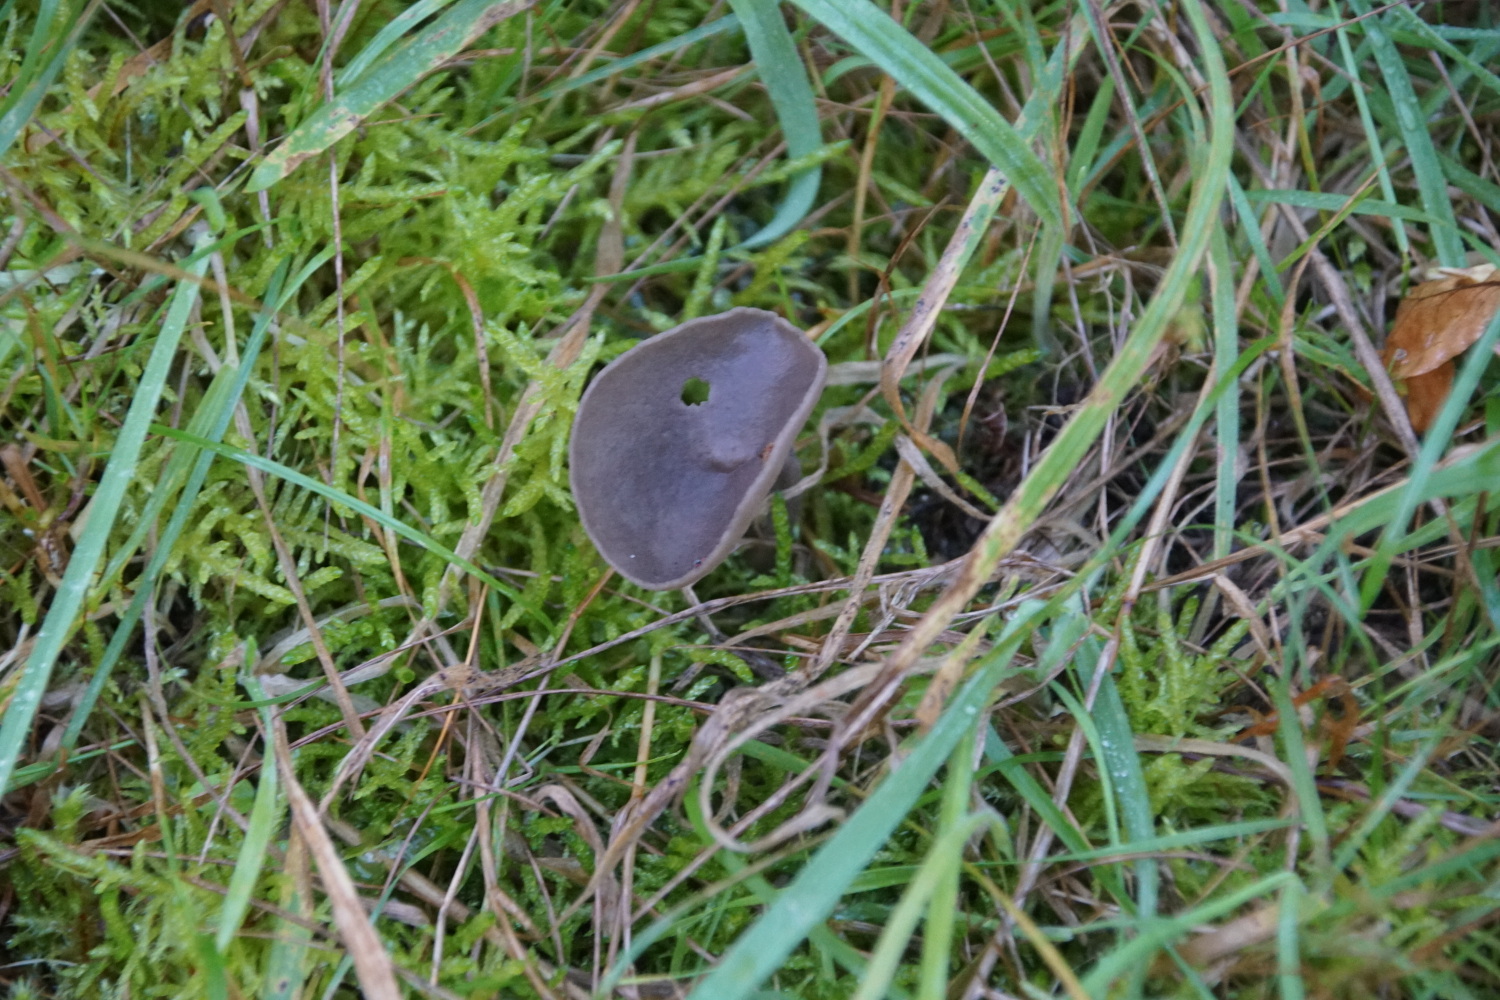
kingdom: Fungi
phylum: Ascomycota
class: Pezizomycetes
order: Pezizales
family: Helvellaceae
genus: Helvella
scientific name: Helvella
